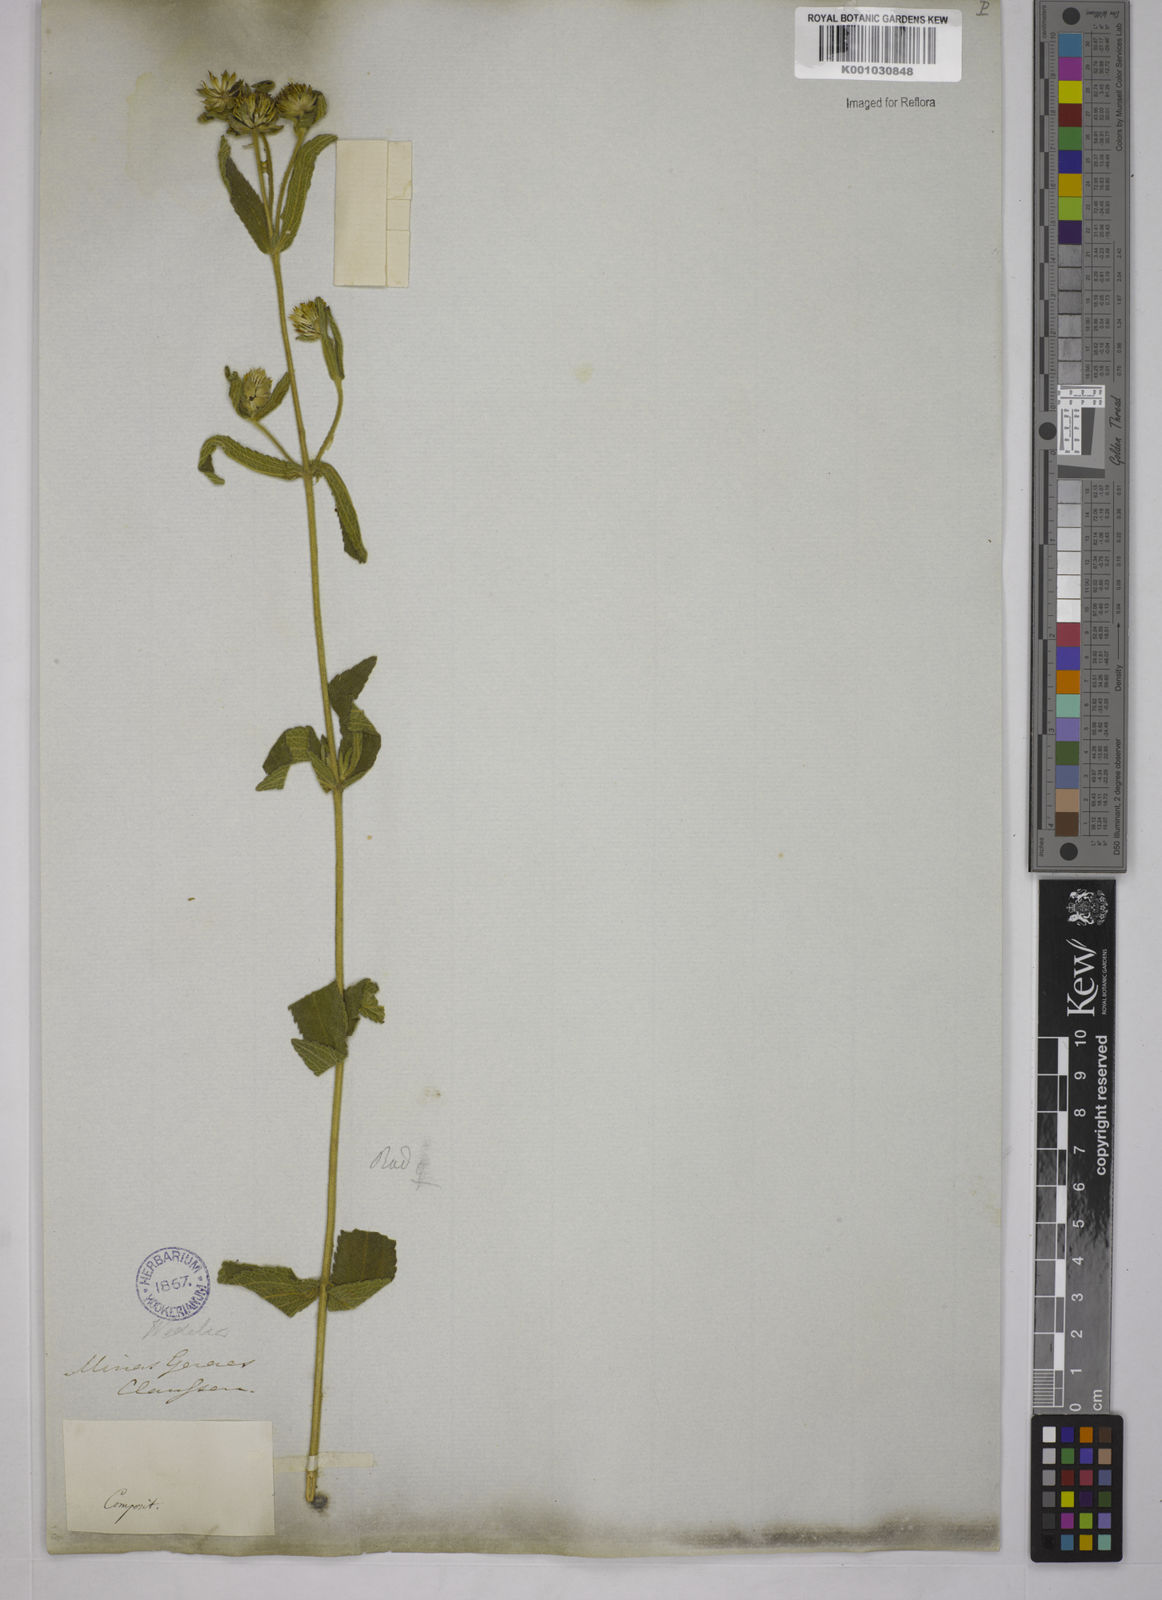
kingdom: Plantae
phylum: Tracheophyta
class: Magnoliopsida
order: Asterales
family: Asteraceae
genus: Wedelia
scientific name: Wedelia macrodonta
